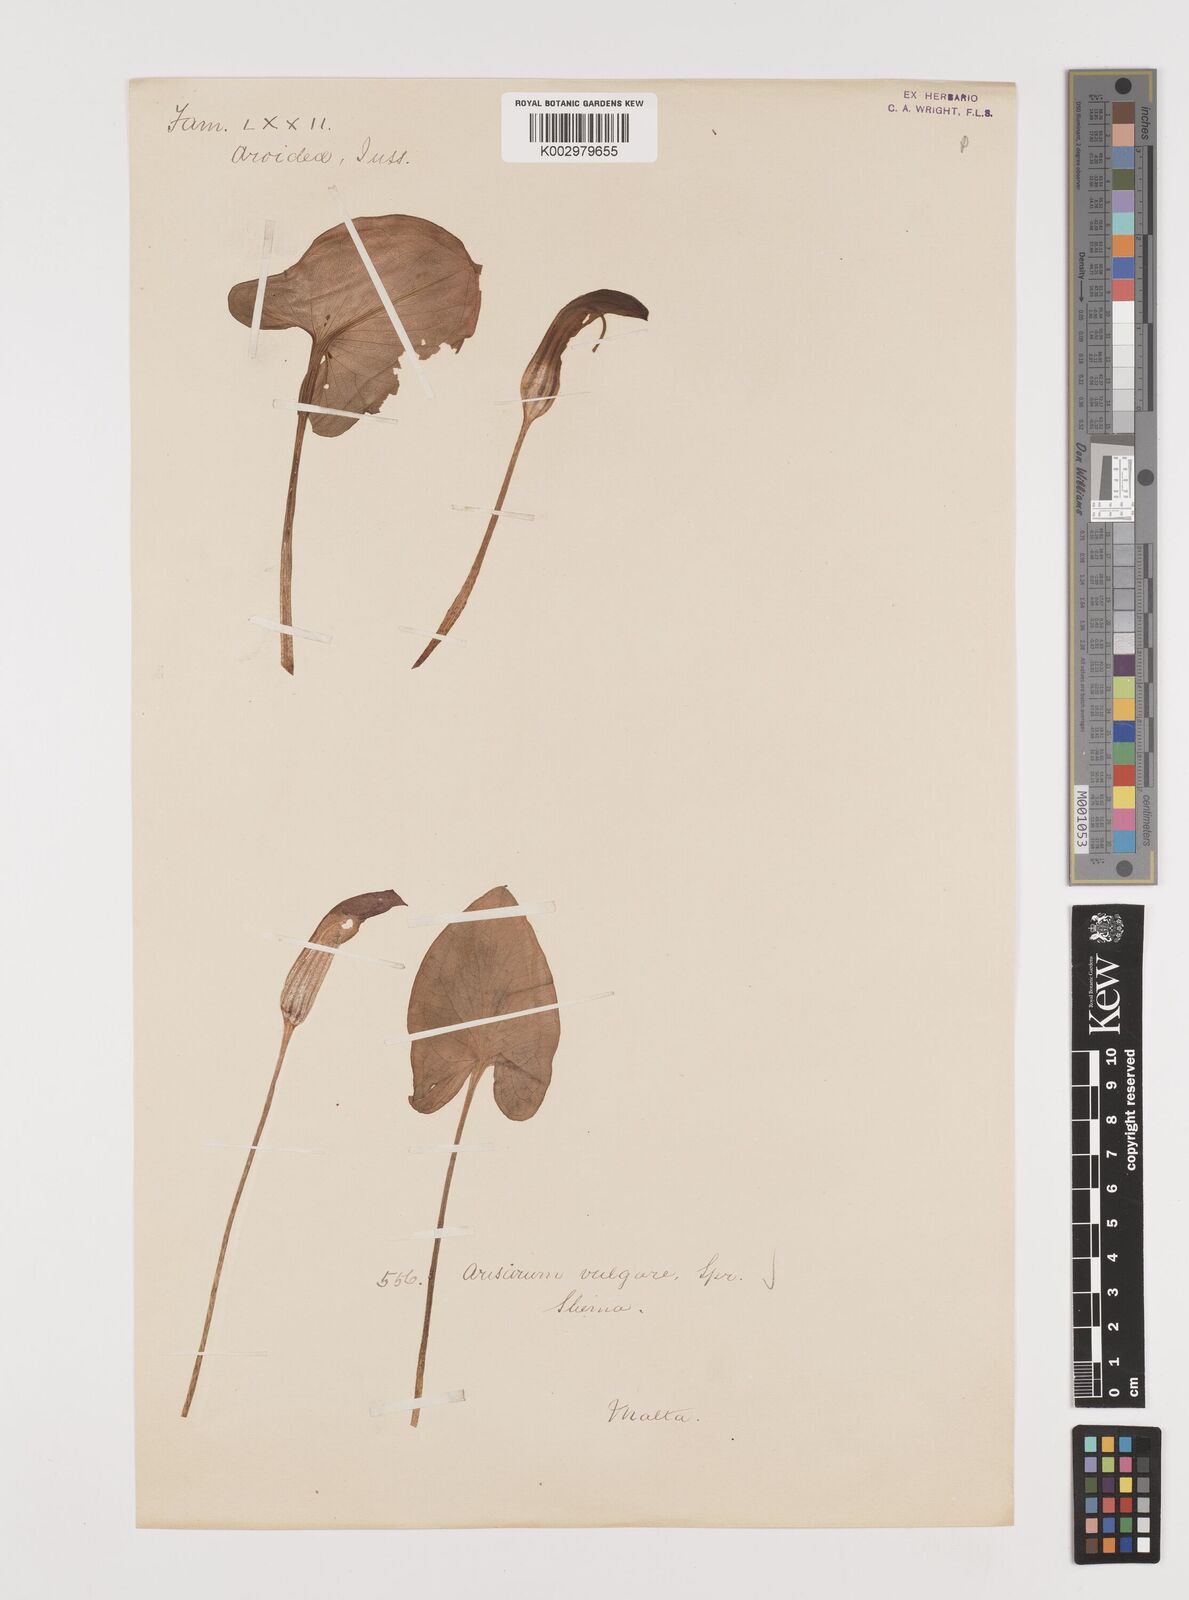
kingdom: Plantae
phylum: Tracheophyta
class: Liliopsida
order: Alismatales
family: Araceae
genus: Arisarum
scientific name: Arisarum vulgare
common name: Common arisarum
